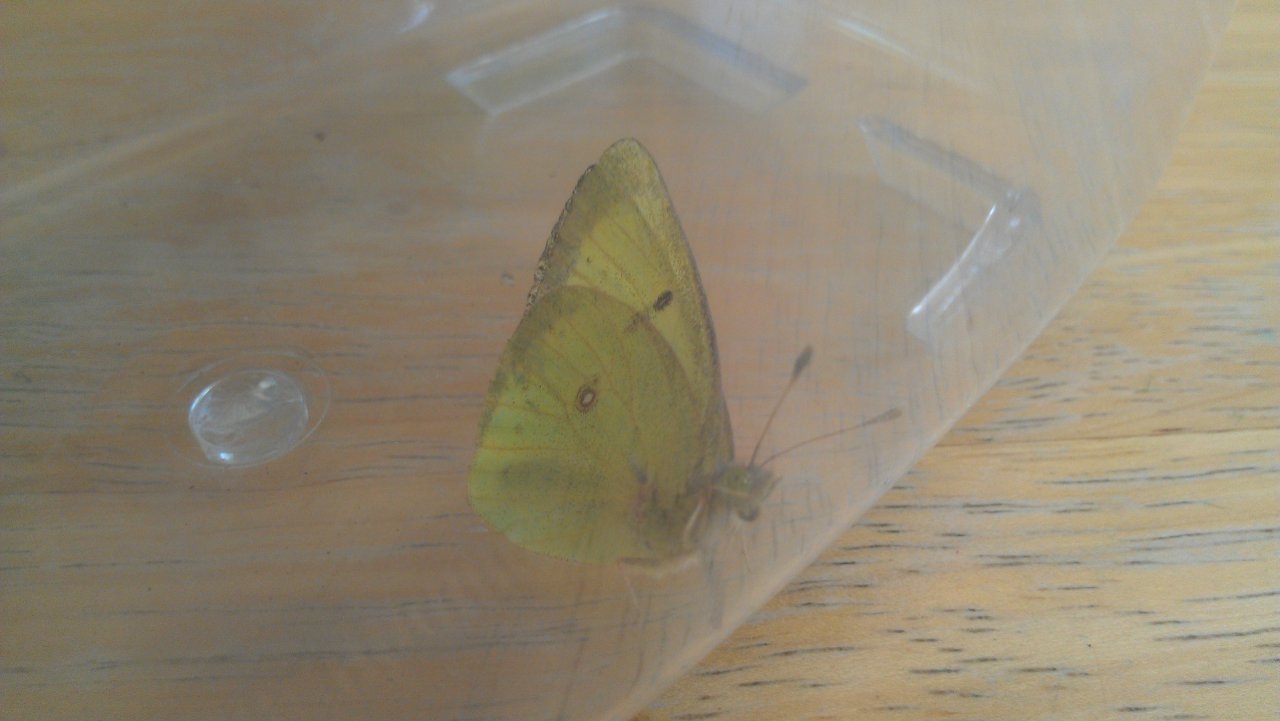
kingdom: Animalia
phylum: Arthropoda
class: Insecta
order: Lepidoptera
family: Pieridae
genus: Colias
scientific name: Colias philodice
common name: Clouded Sulphur
